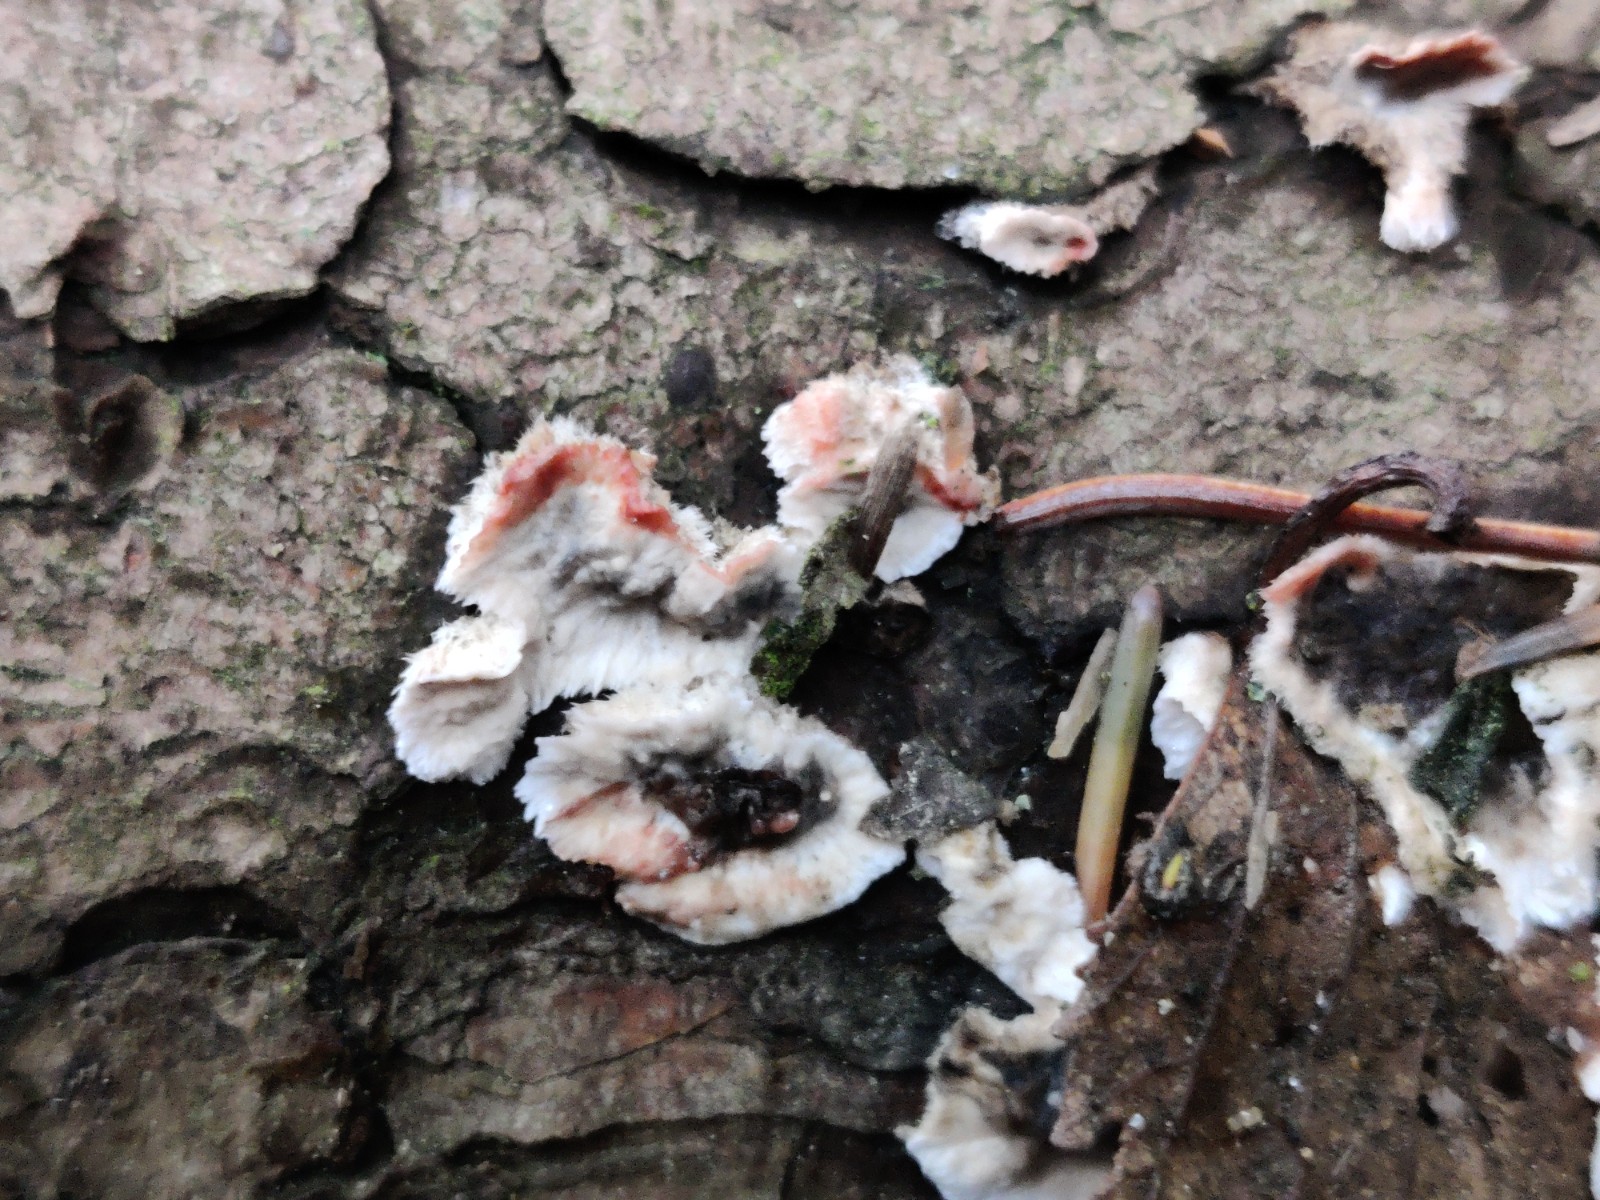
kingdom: Fungi
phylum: Basidiomycota
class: Agaricomycetes
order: Russulales
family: Stereaceae
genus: Stereum
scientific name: Stereum sanguinolentum
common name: blødende lædersvamp
